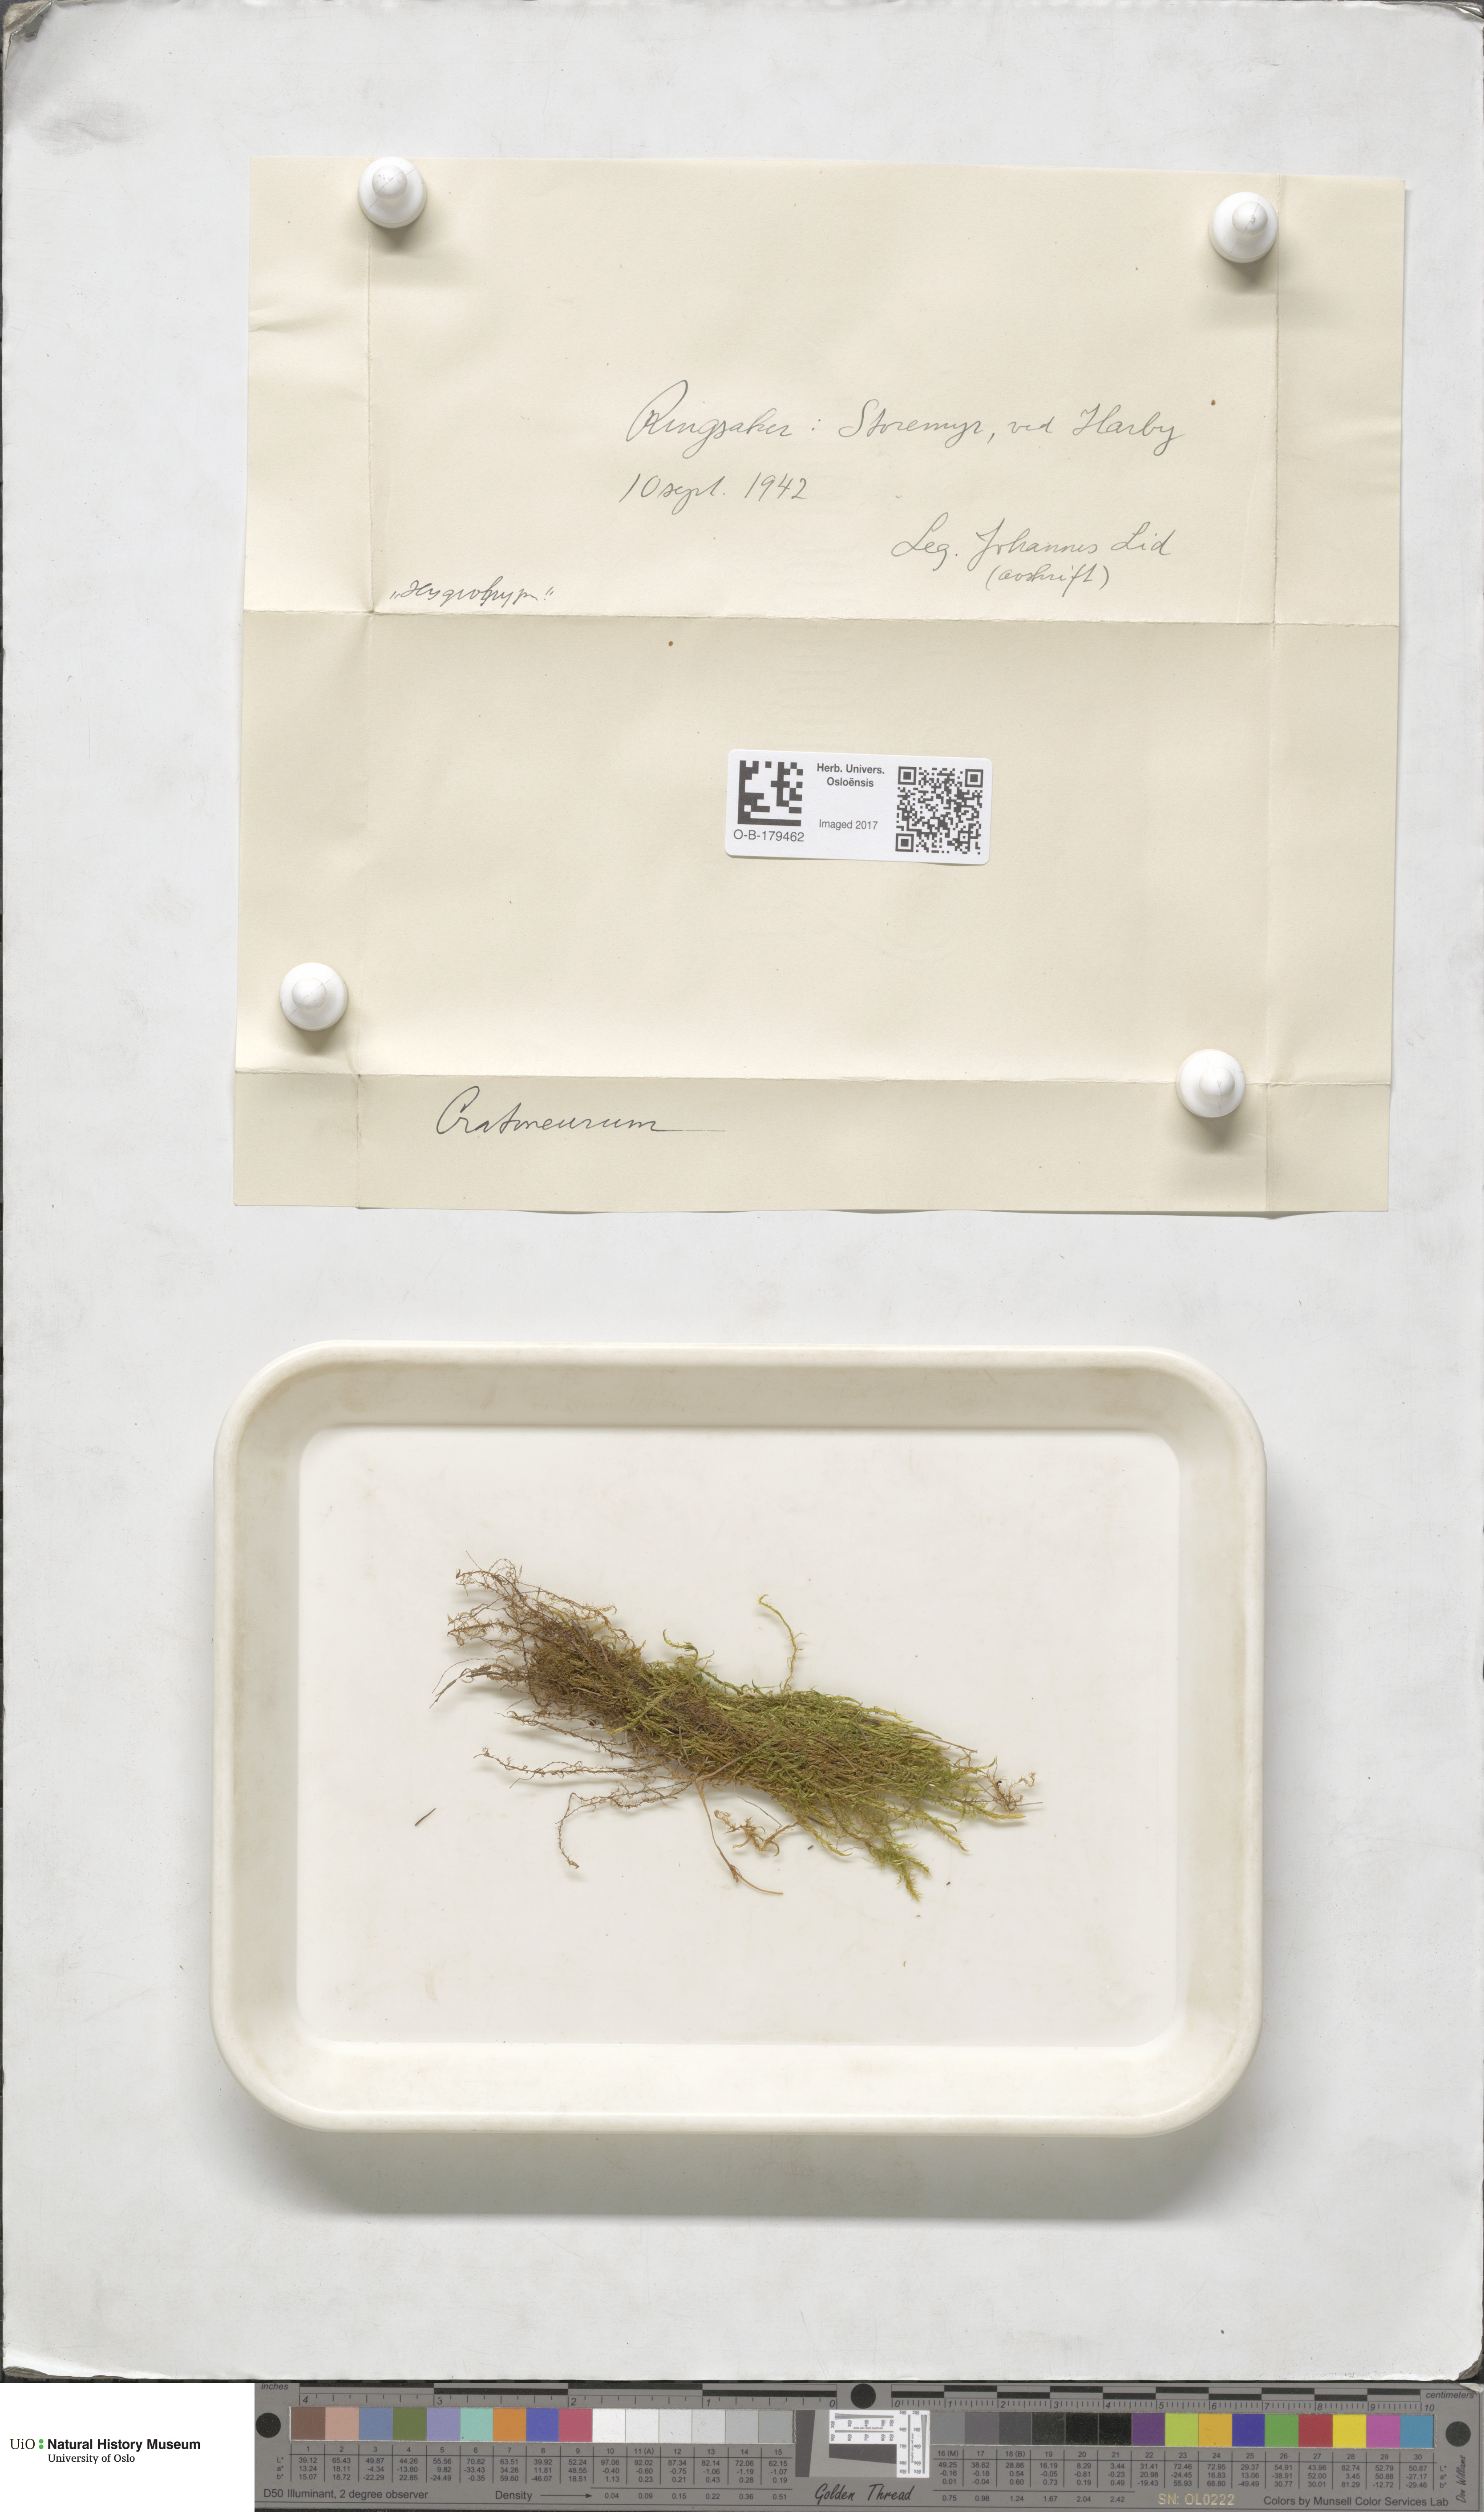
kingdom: Plantae
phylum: Bryophyta
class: Bryopsida
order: Hypnales
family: Amblystegiaceae
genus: Cratoneuron
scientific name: Cratoneuron
